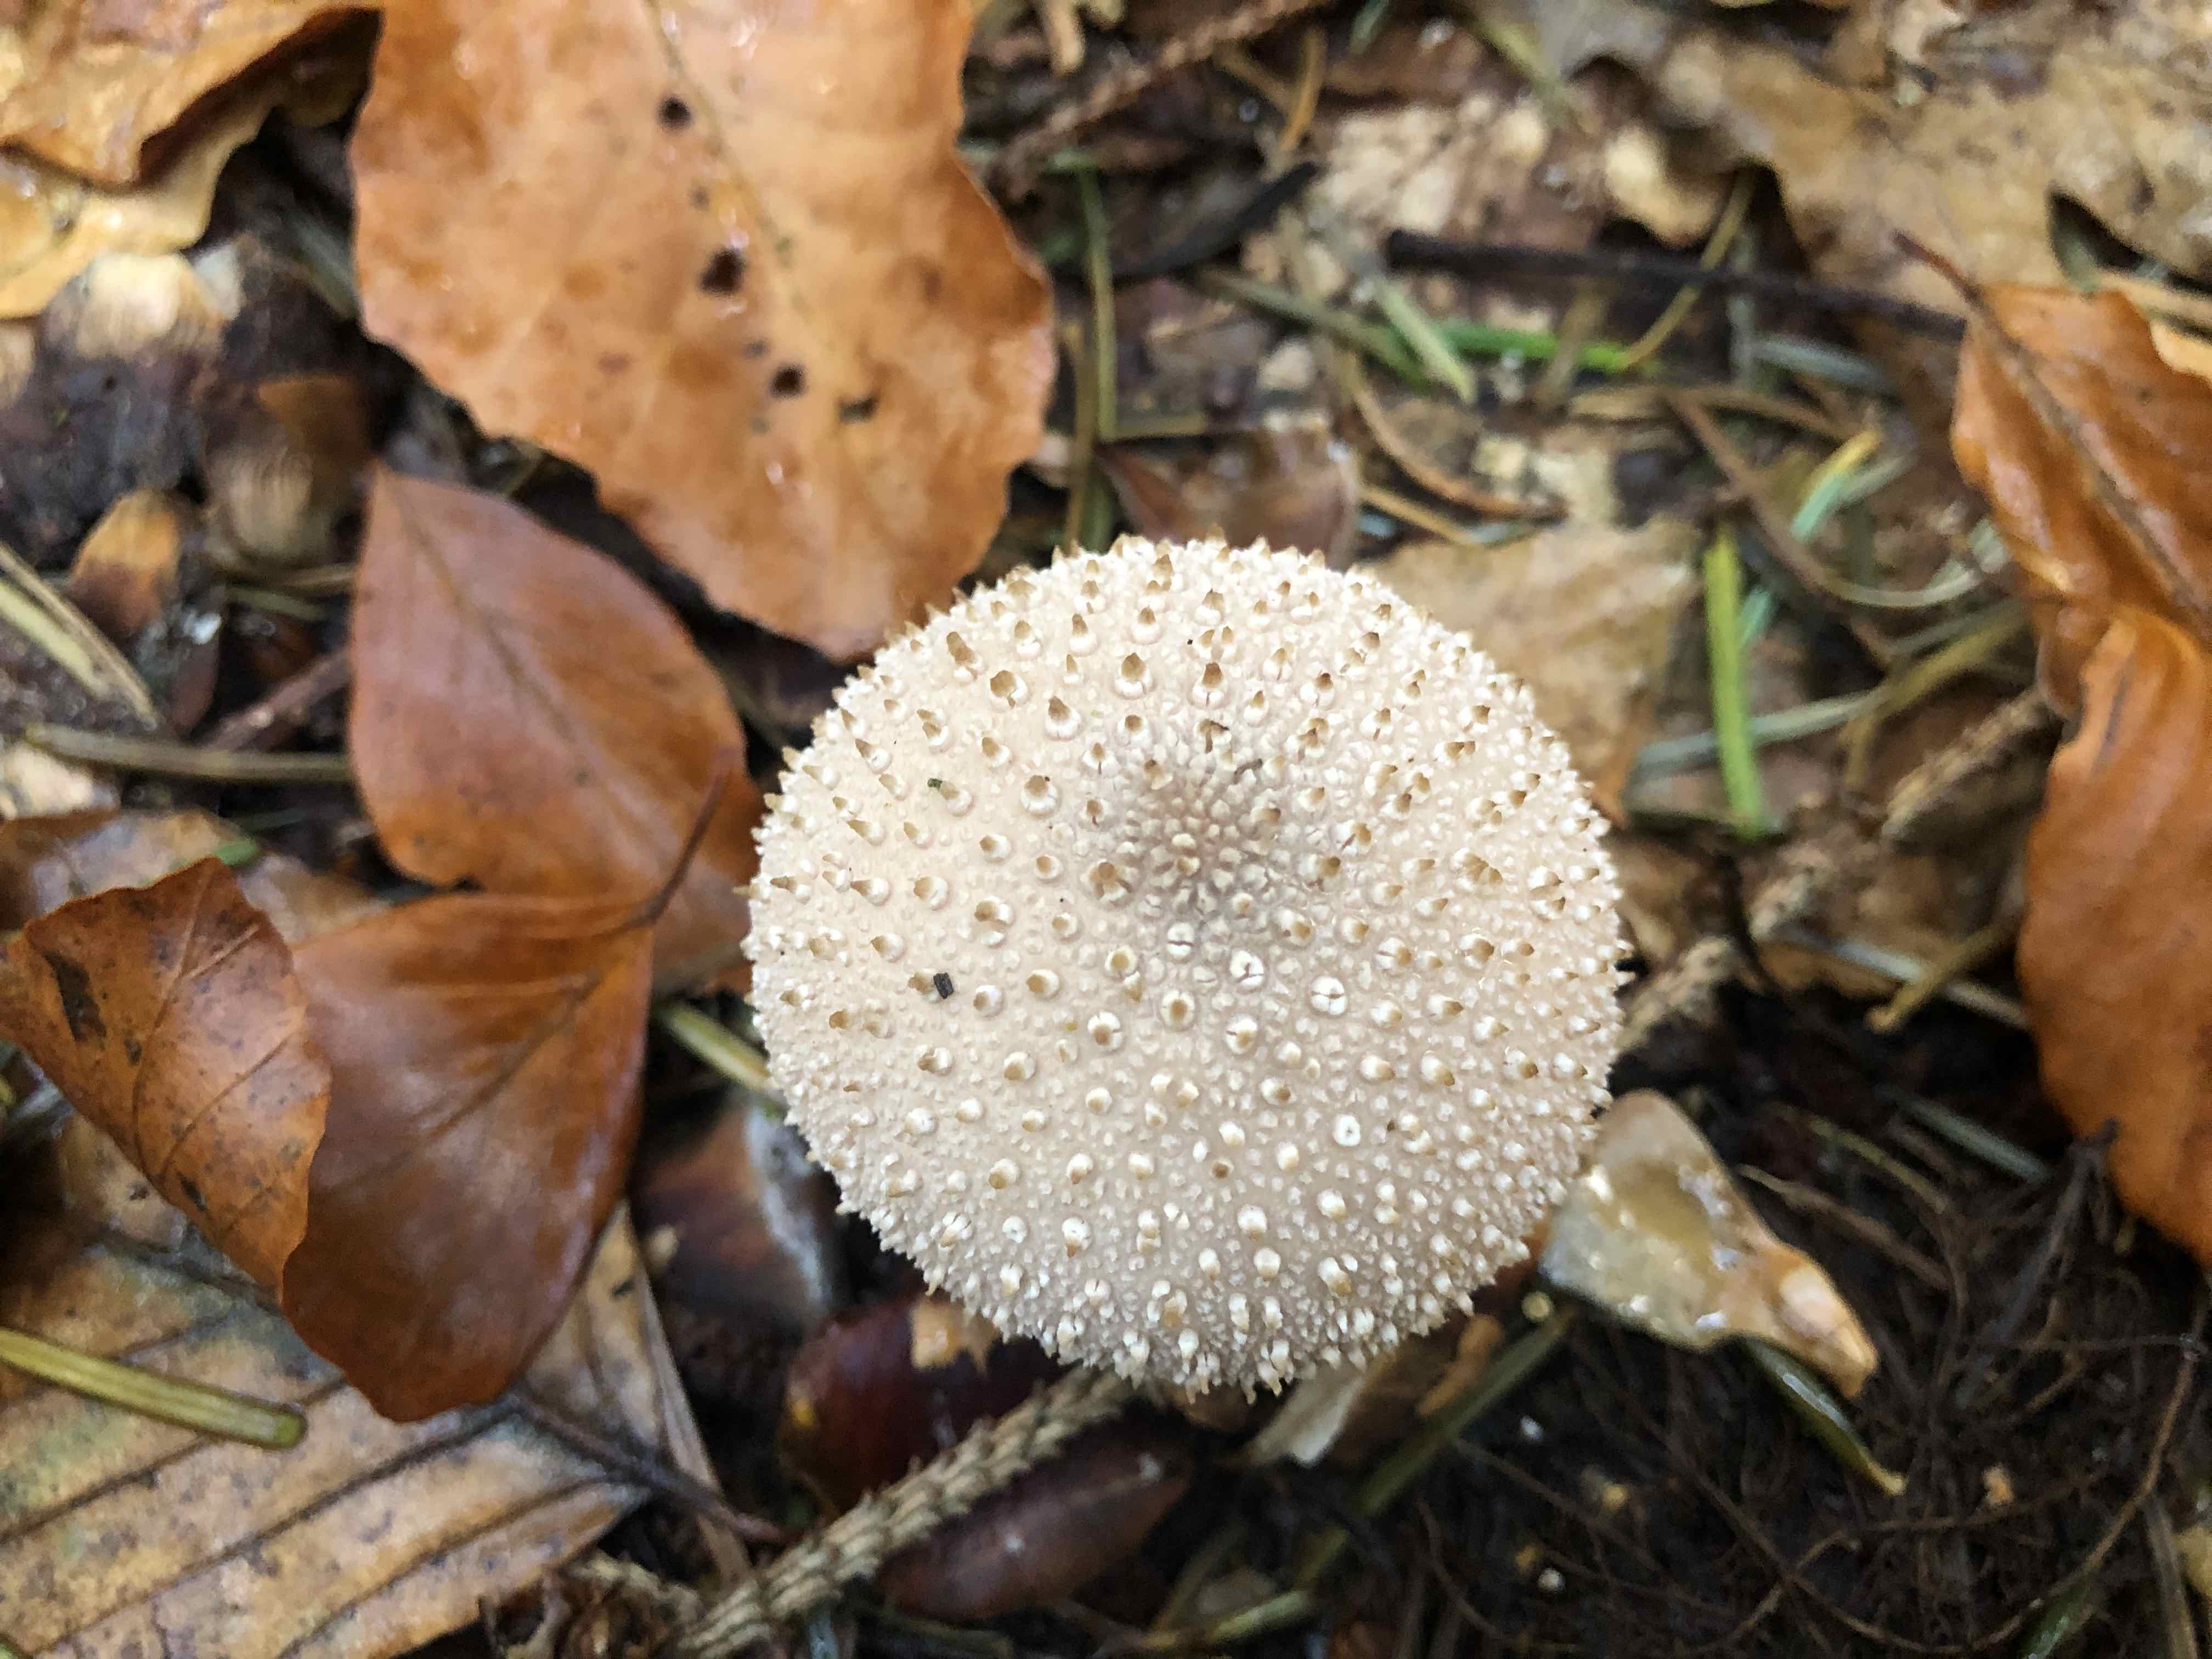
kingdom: Fungi
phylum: Basidiomycota
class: Agaricomycetes
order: Agaricales
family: Lycoperdaceae
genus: Lycoperdon
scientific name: Lycoperdon perlatum
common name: krystal-støvbold
